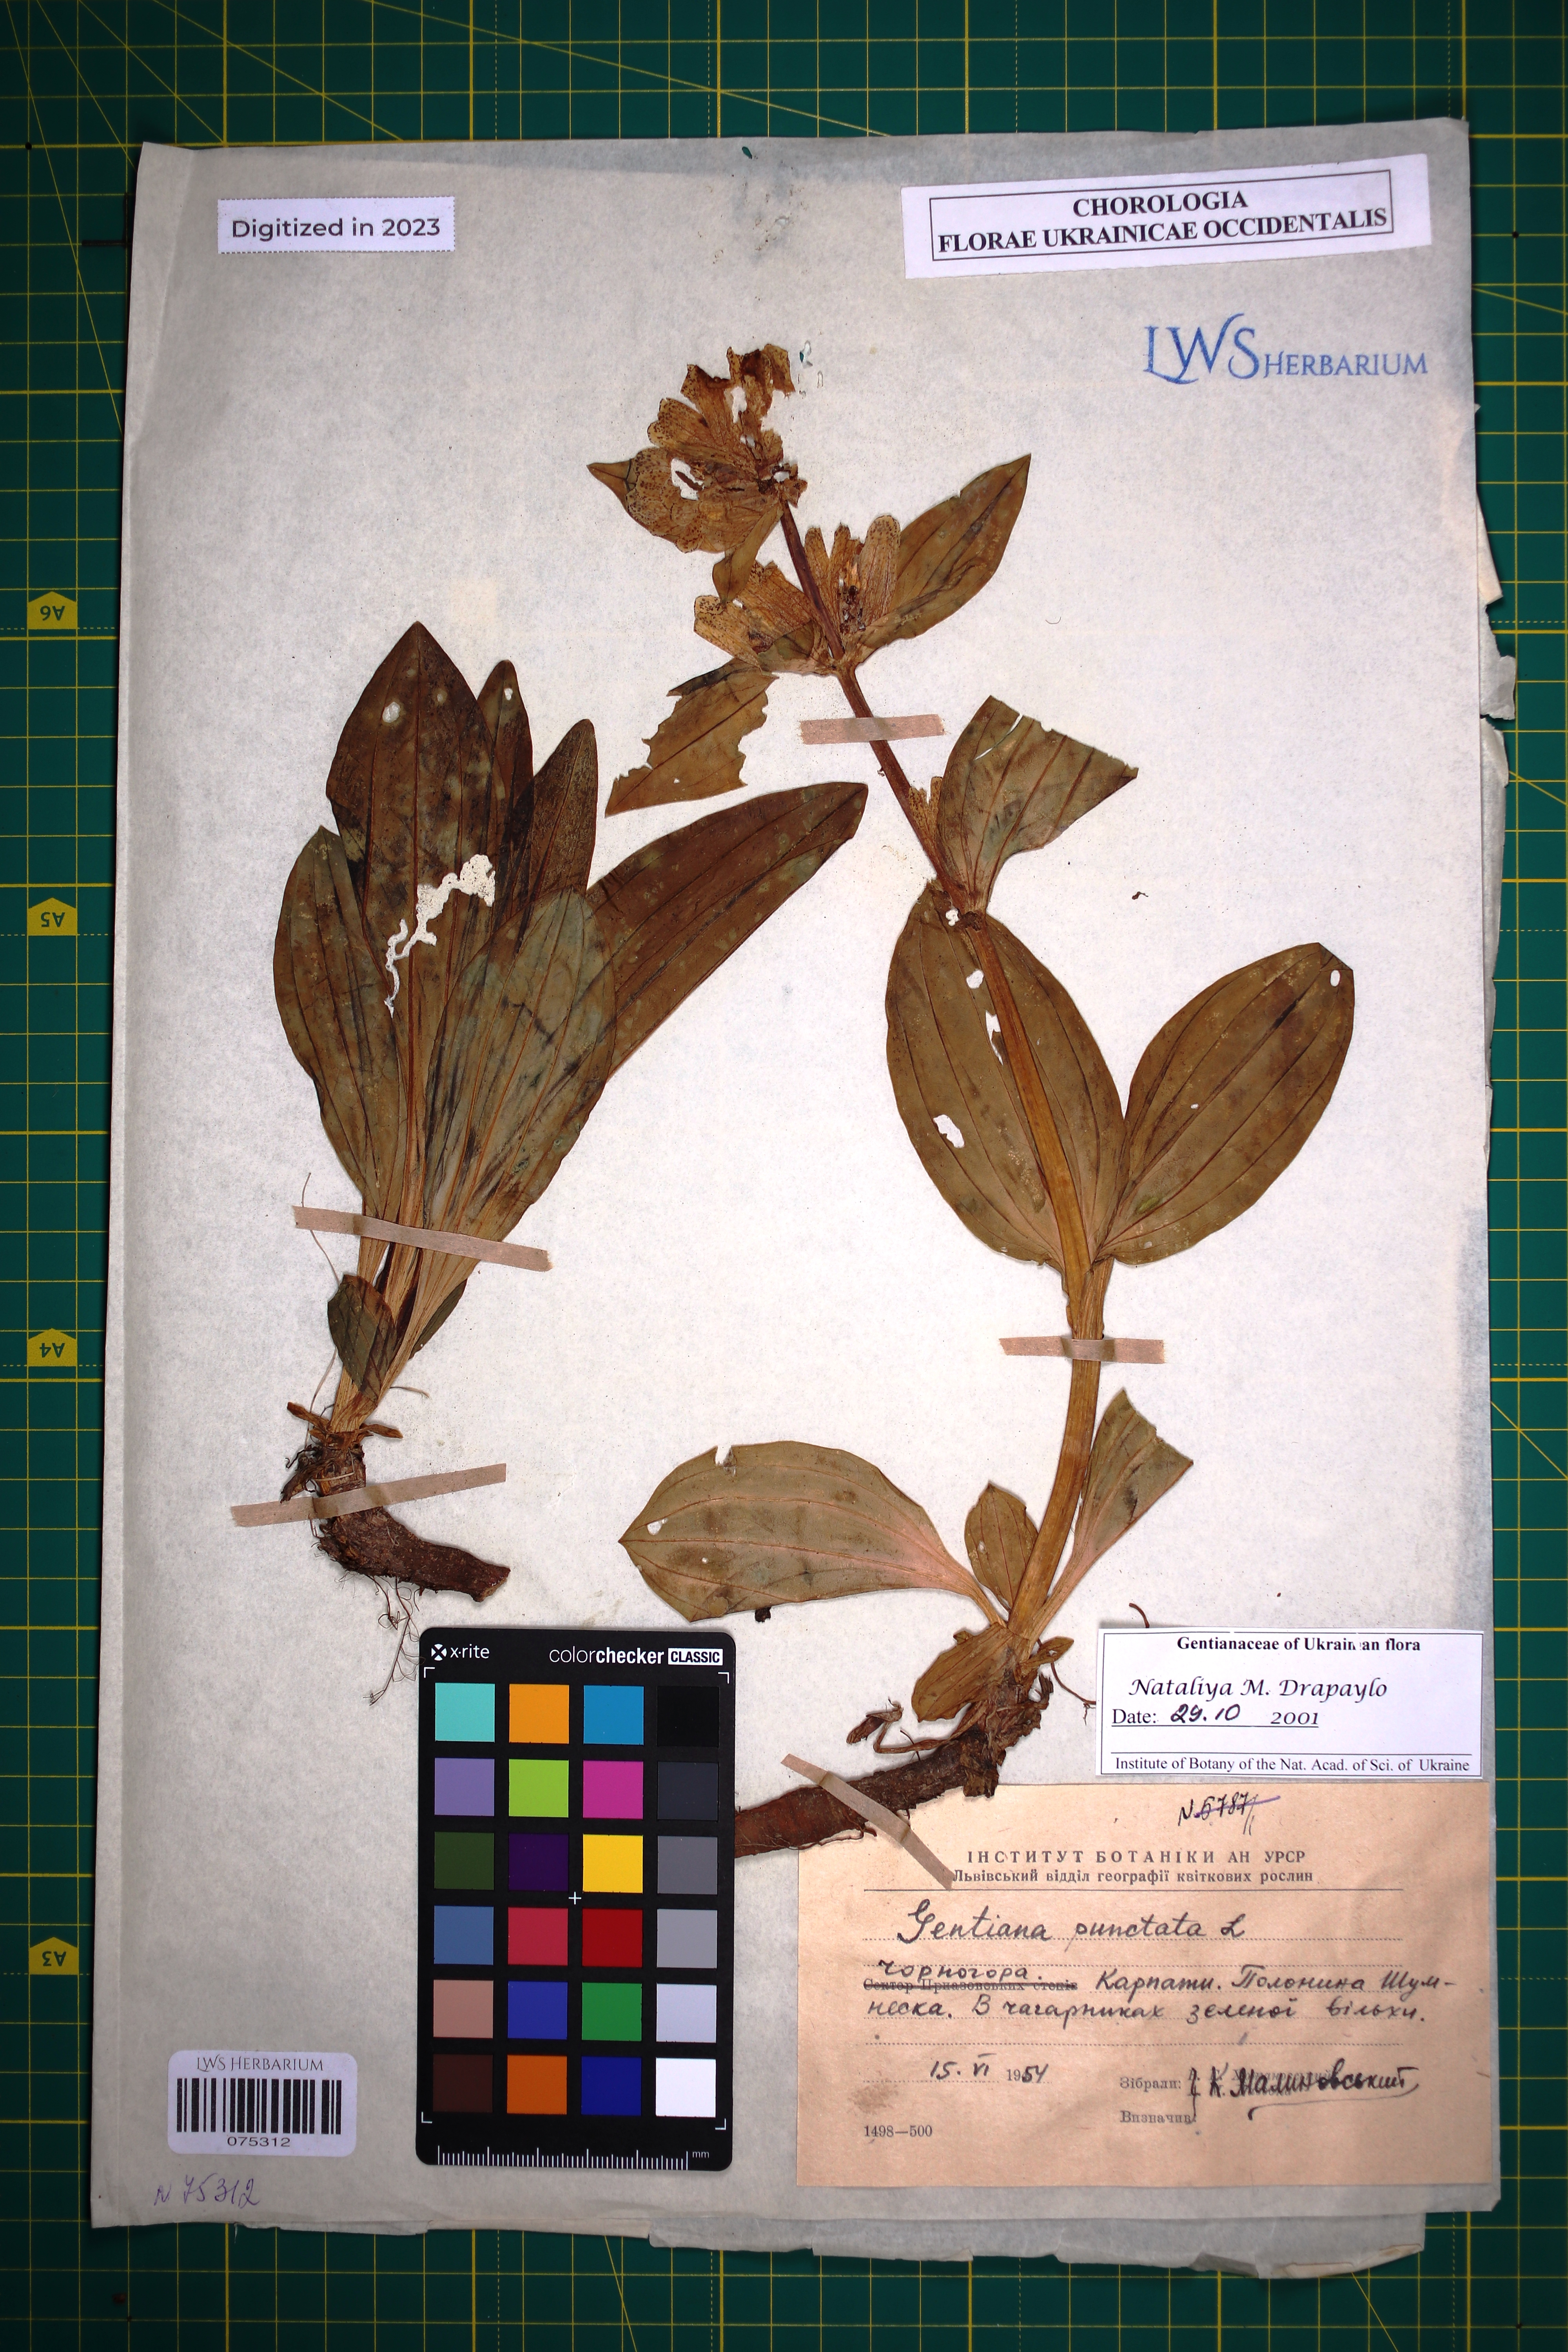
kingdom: Plantae
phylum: Tracheophyta
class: Magnoliopsida
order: Gentianales
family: Gentianaceae
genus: Gentiana
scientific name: Gentiana punctata
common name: Spotted gentian
